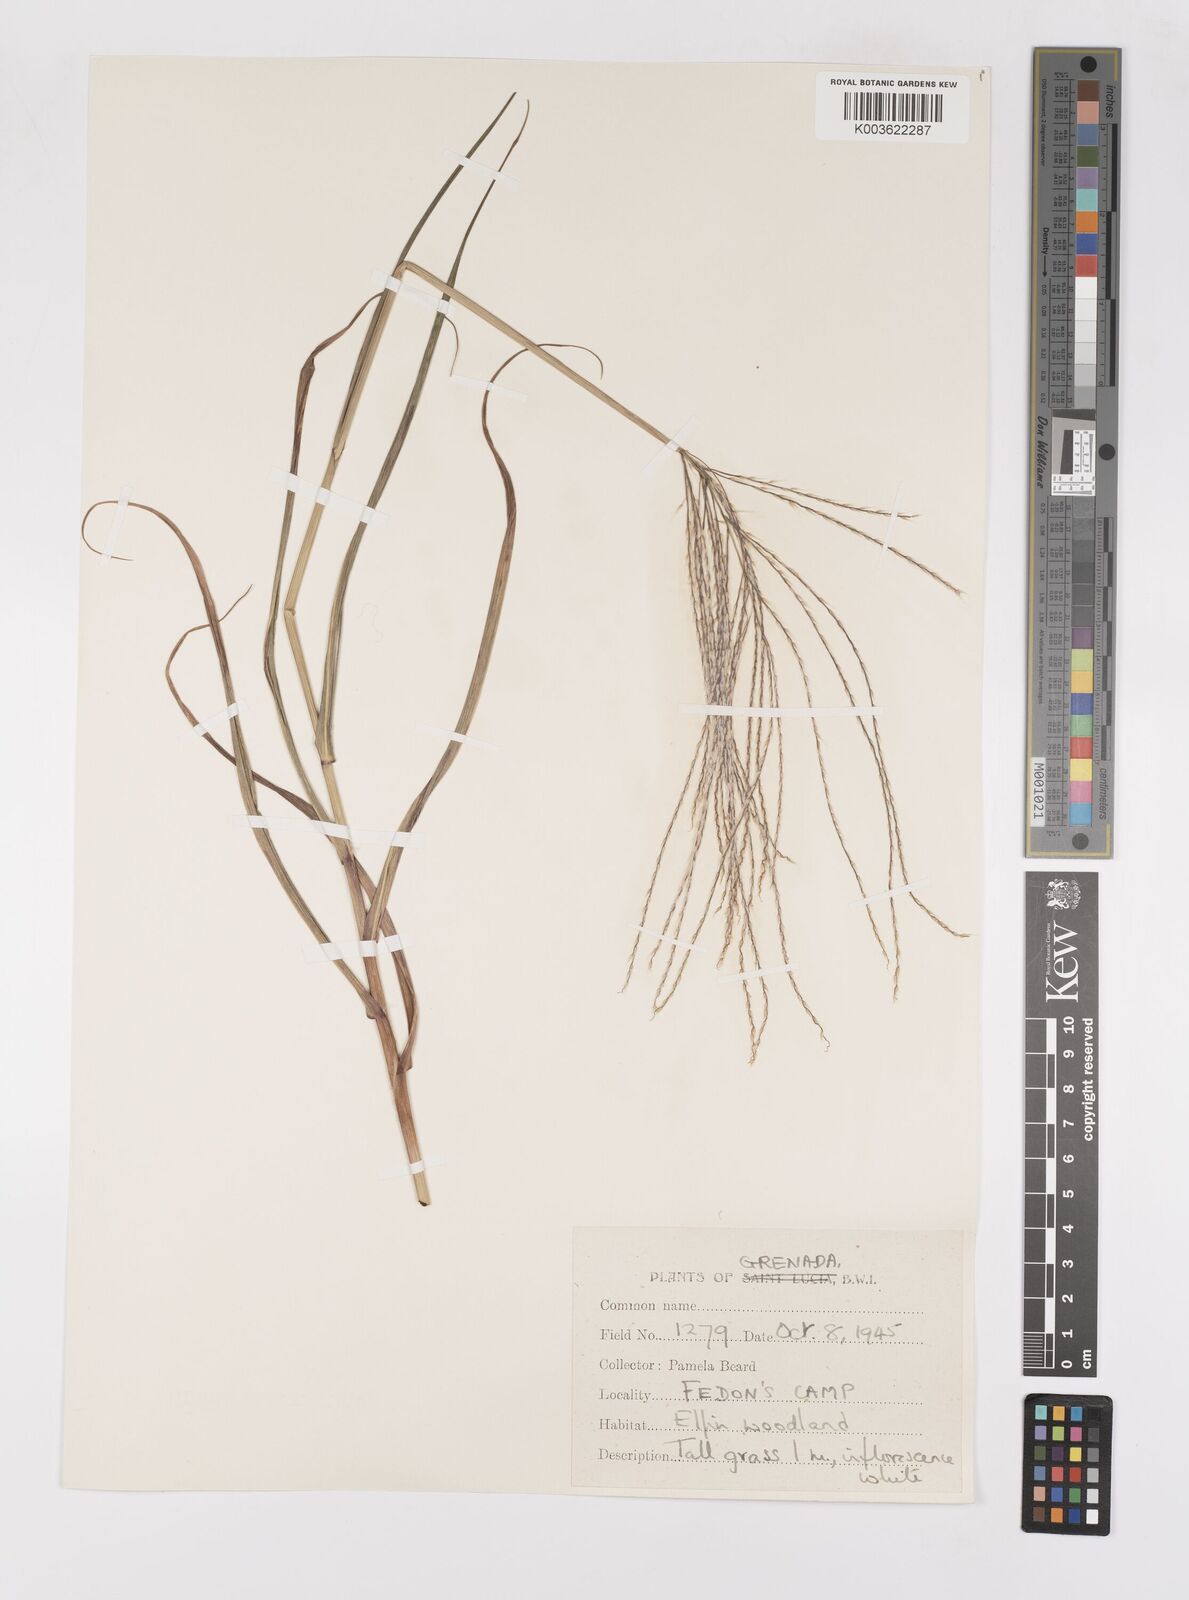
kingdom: Plantae
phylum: Tracheophyta
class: Liliopsida
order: Poales
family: Poaceae
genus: Paspalum
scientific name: Paspalum saccharoides
